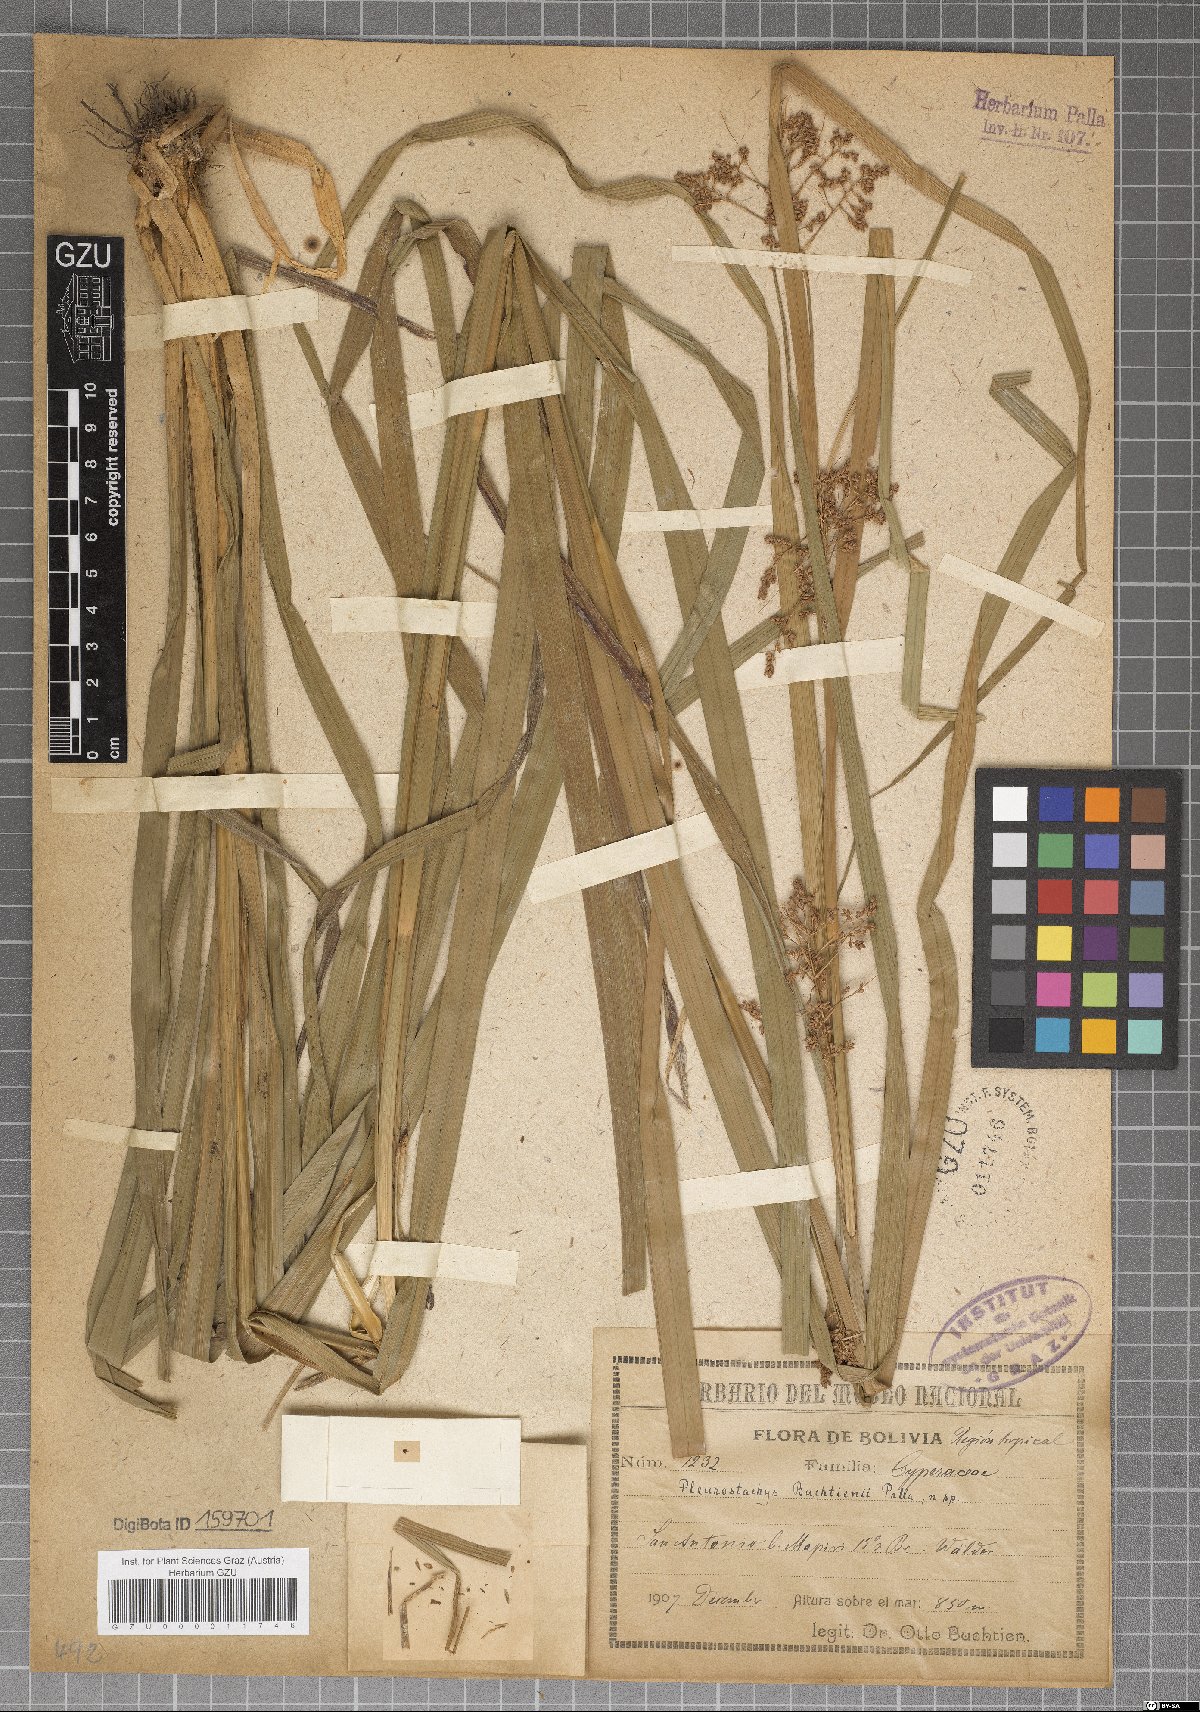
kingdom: Plantae
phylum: Tracheophyta
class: Liliopsida
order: Poales
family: Cyperaceae
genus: Rhynchospora
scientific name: Rhynchospora Pleurostachys buchtienii
